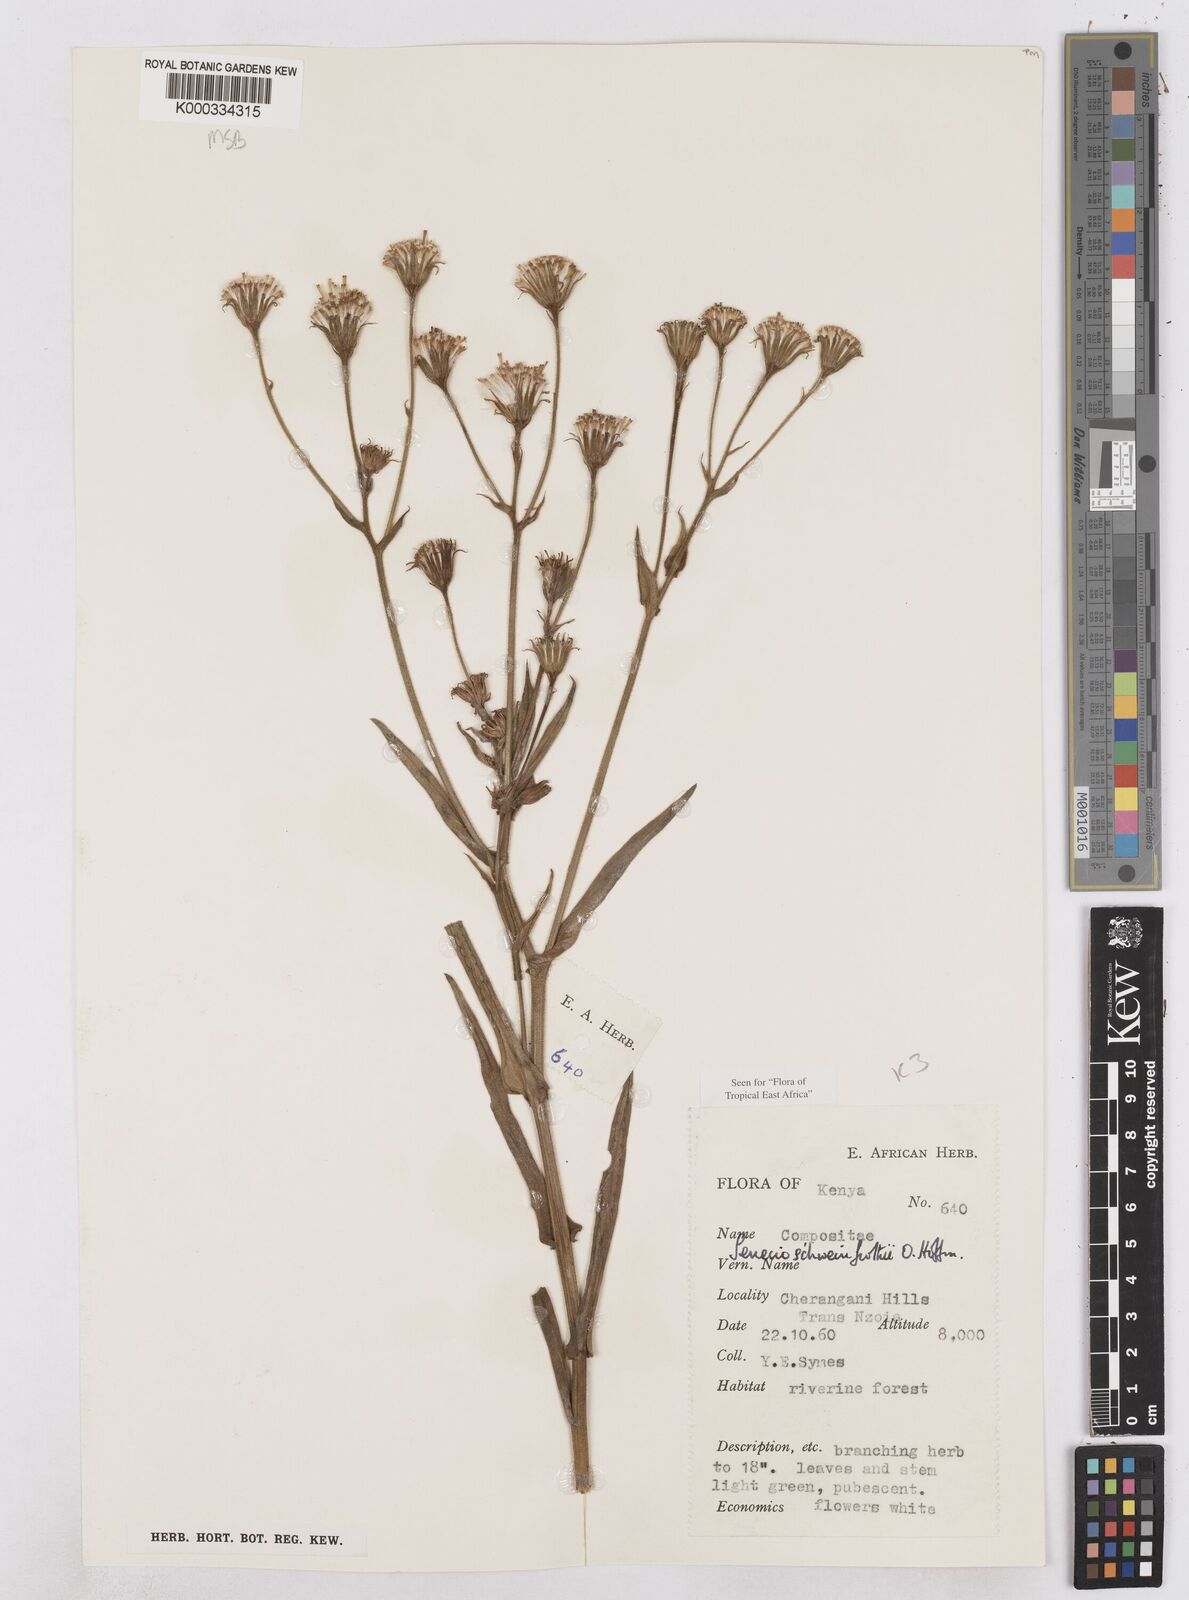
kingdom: Plantae
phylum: Tracheophyta
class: Magnoliopsida
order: Asterales
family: Asteraceae
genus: Senecio
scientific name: Senecio schweinfurthii
